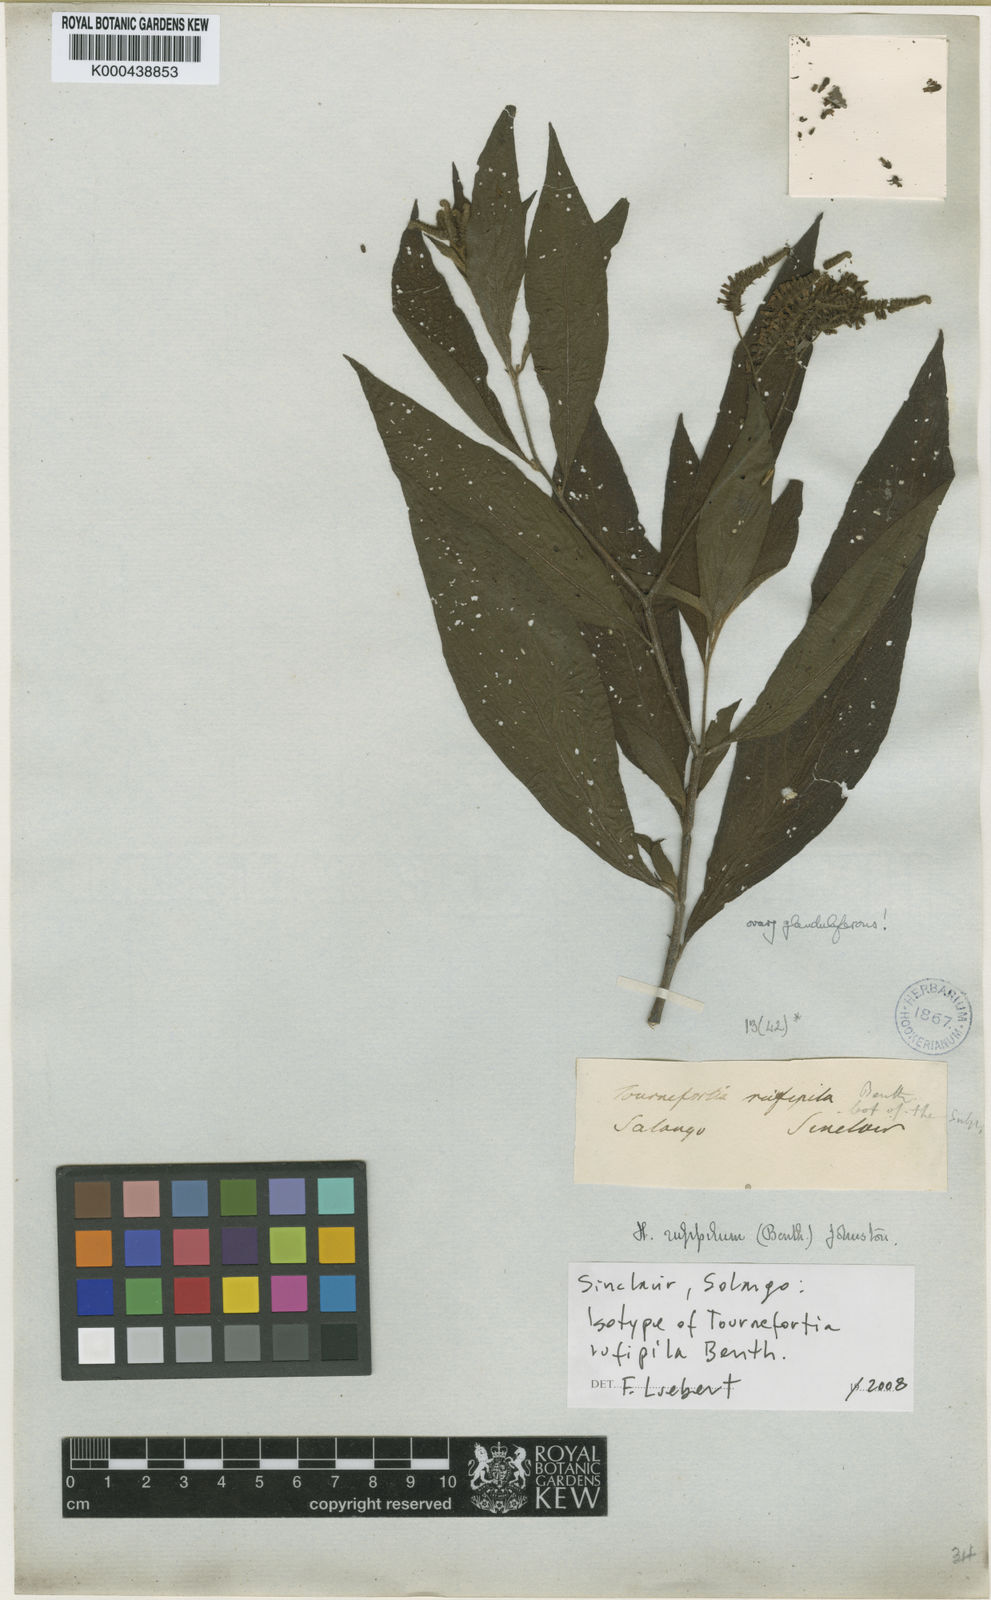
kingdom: Plantae
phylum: Tracheophyta
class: Magnoliopsida
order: Boraginales
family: Heliotropiaceae
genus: Heliotropium
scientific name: Heliotropium rufipilum
